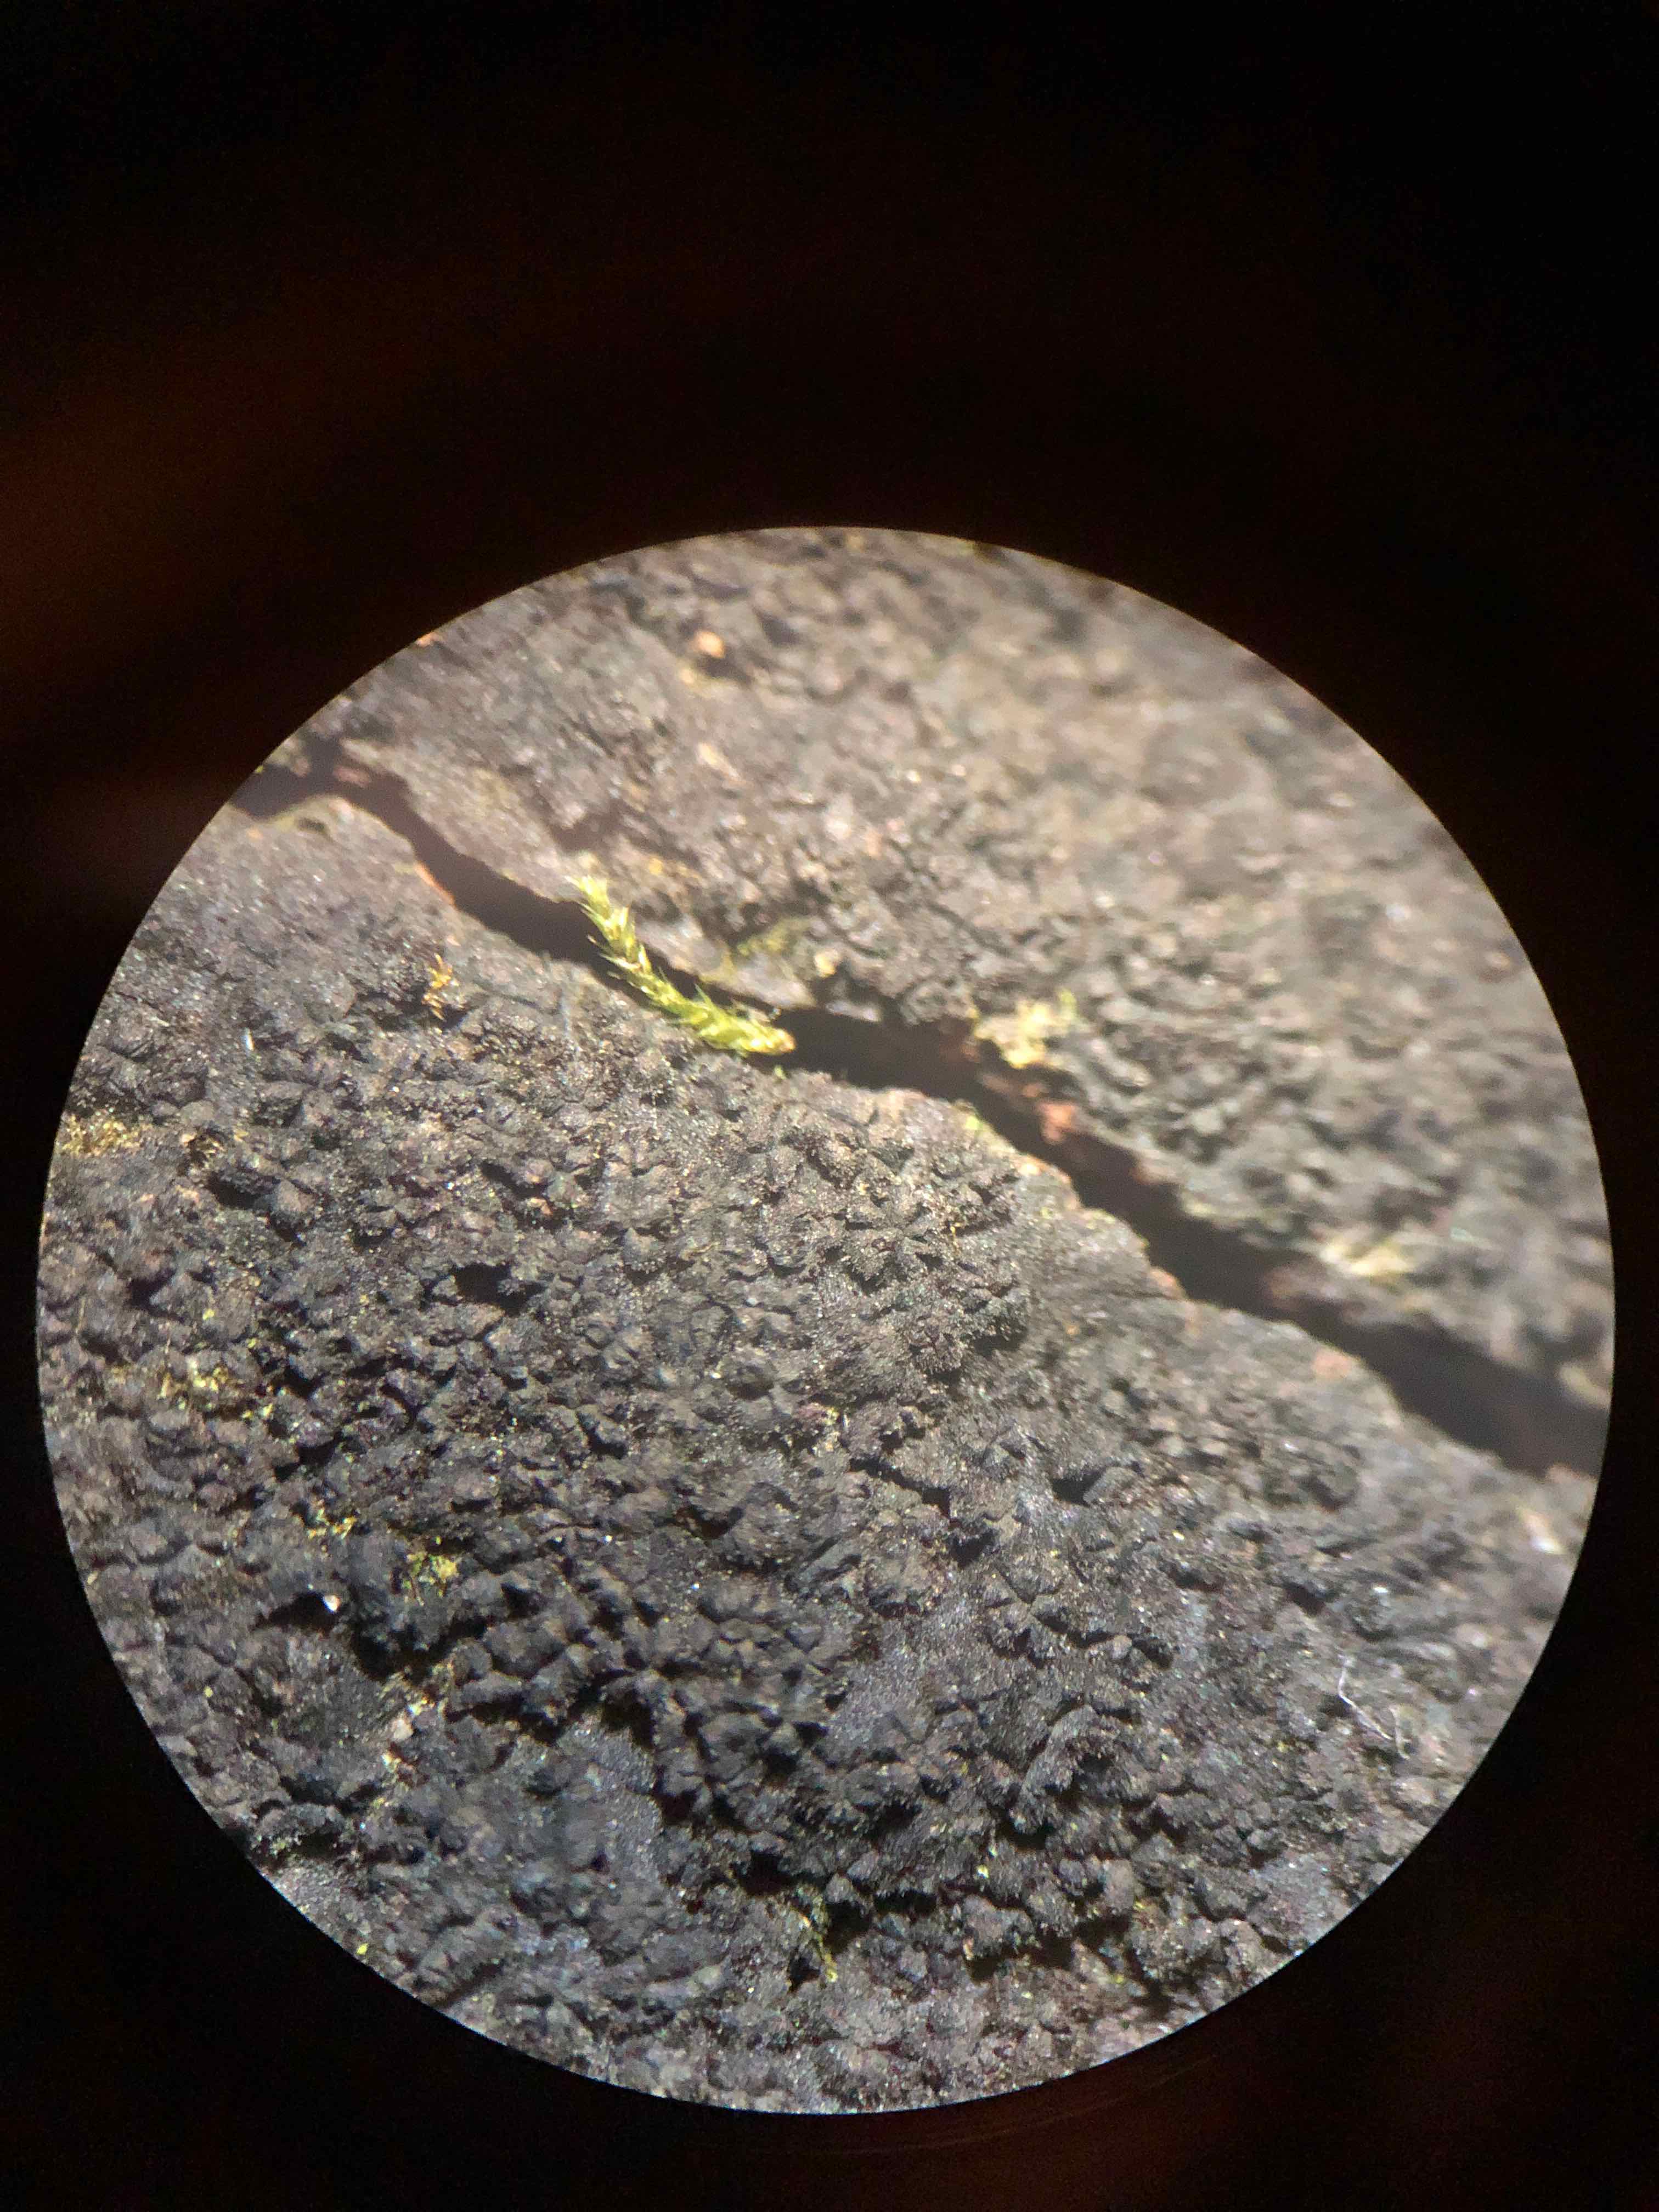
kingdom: Fungi
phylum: Ascomycota
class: Sordariomycetes
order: Xylariales
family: Diatrypaceae
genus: Eutypa
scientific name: Eutypa spinosa
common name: grov kulskorpe
